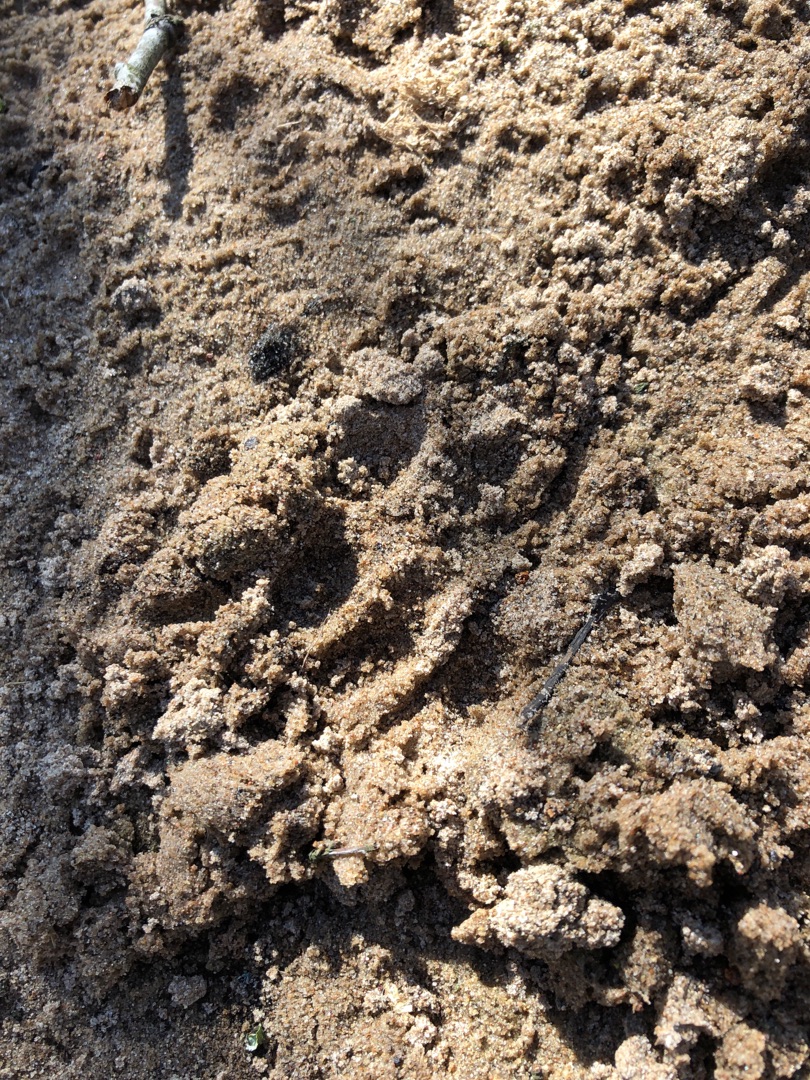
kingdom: Animalia
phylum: Chordata
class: Mammalia
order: Carnivora
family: Mustelidae
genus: Lutra
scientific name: Lutra lutra
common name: Odder
